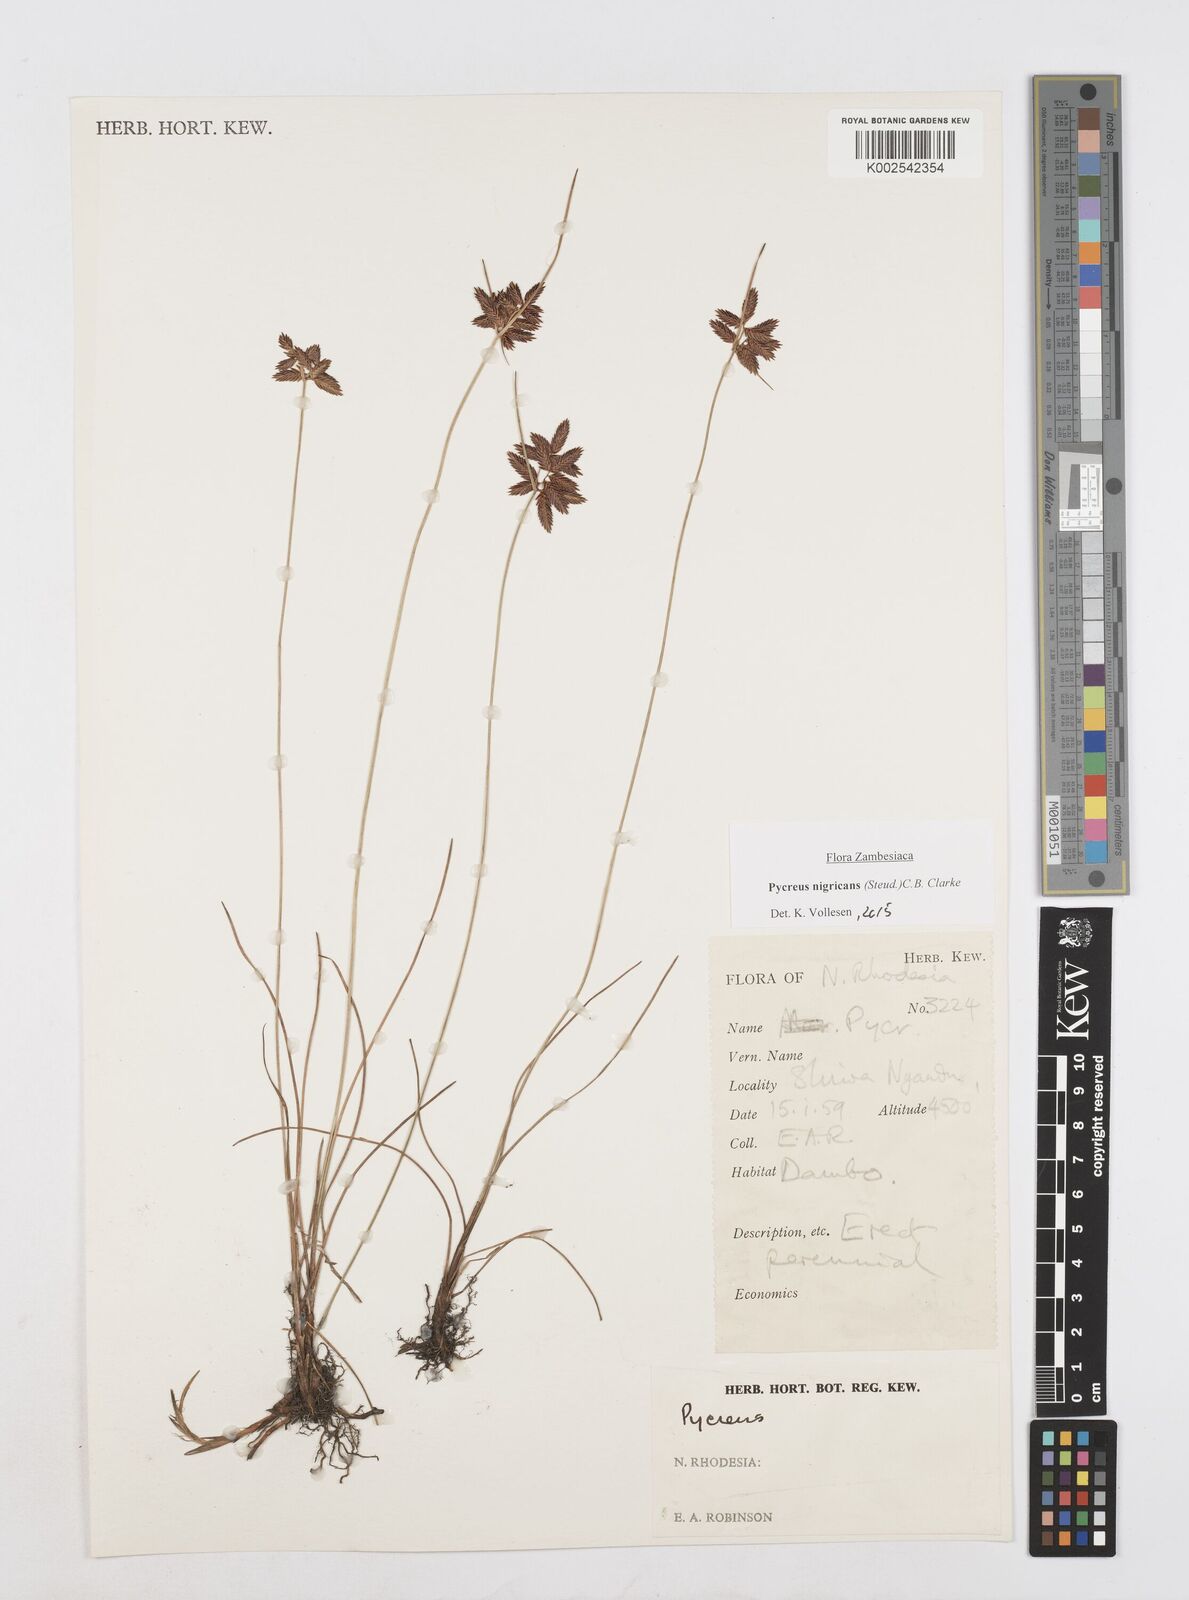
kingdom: Plantae
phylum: Tracheophyta
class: Liliopsida
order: Poales
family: Cyperaceae
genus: Cyperus
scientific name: Cyperus nigricans
